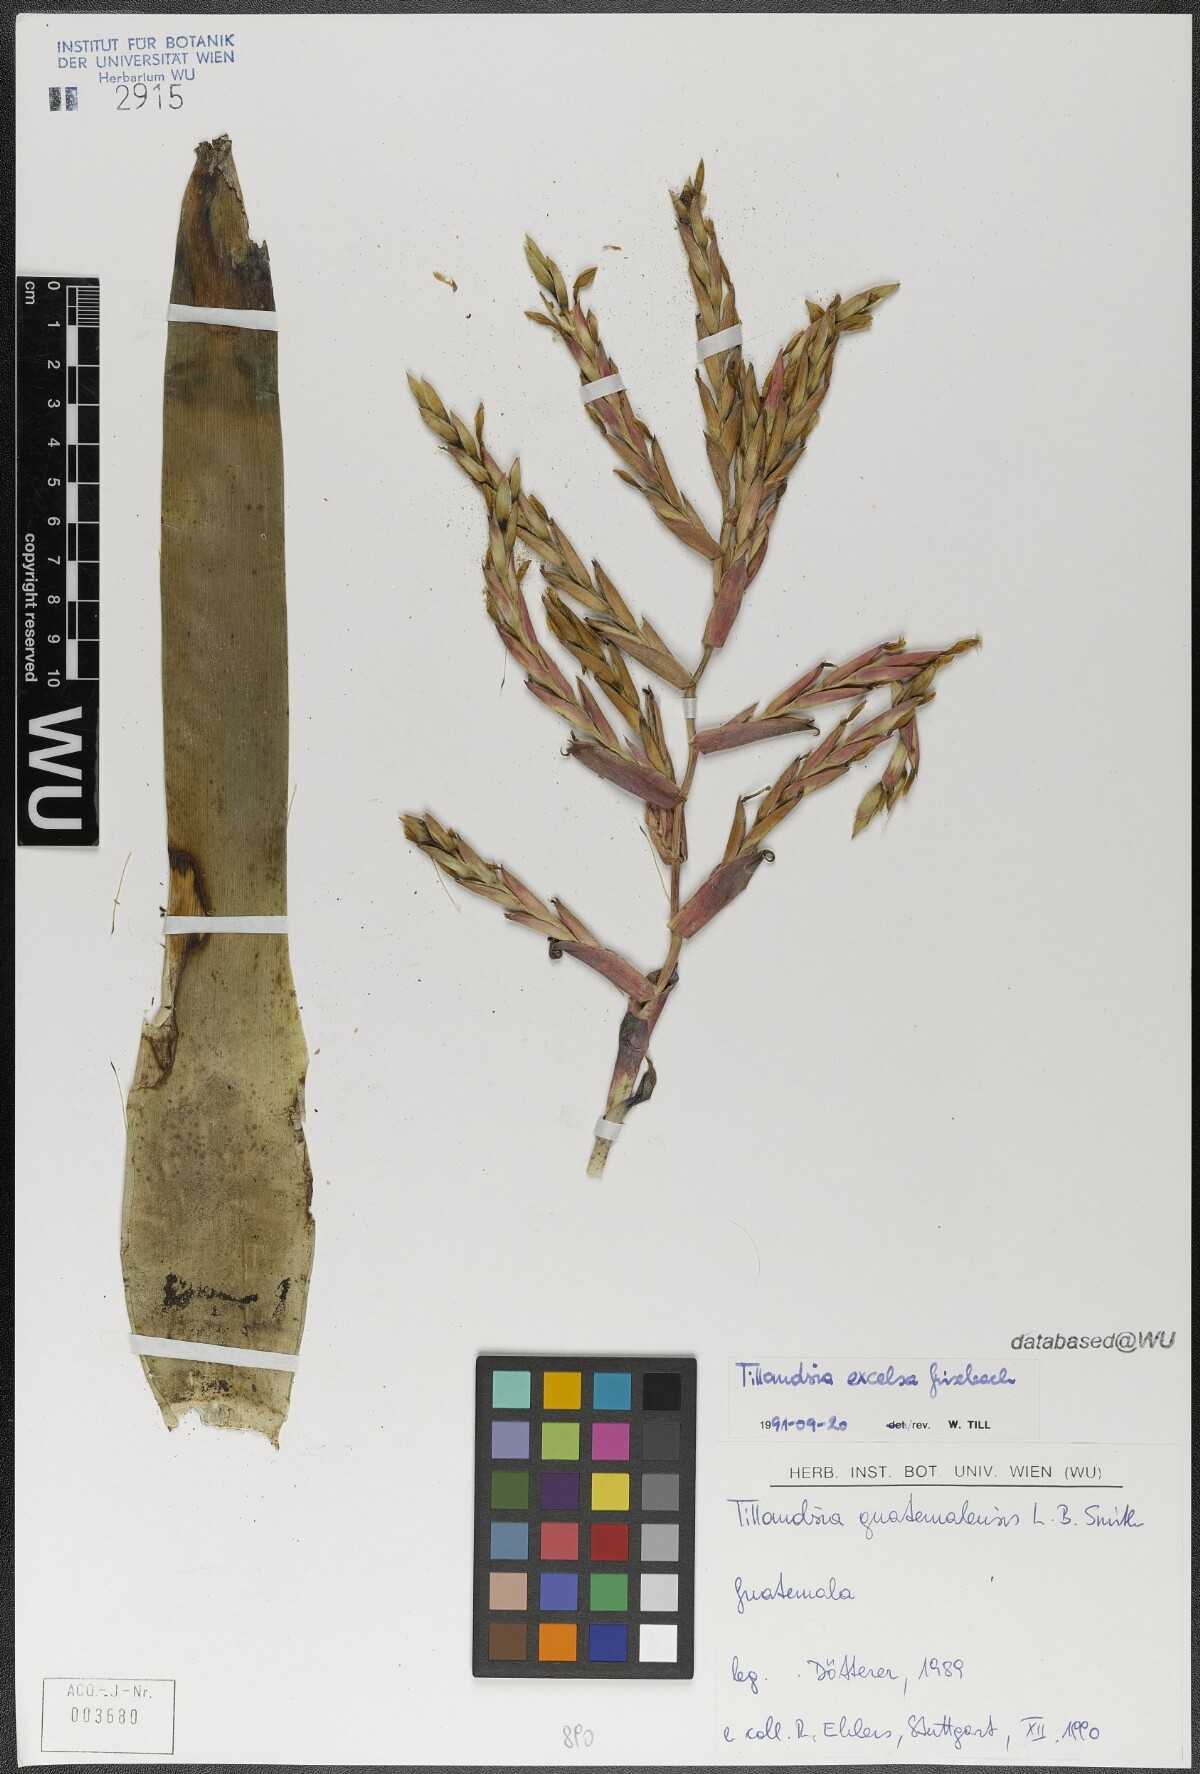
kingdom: Plantae
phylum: Tracheophyta
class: Liliopsida
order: Poales
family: Bromeliaceae
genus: Tillandsia
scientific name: Tillandsia excelsa
